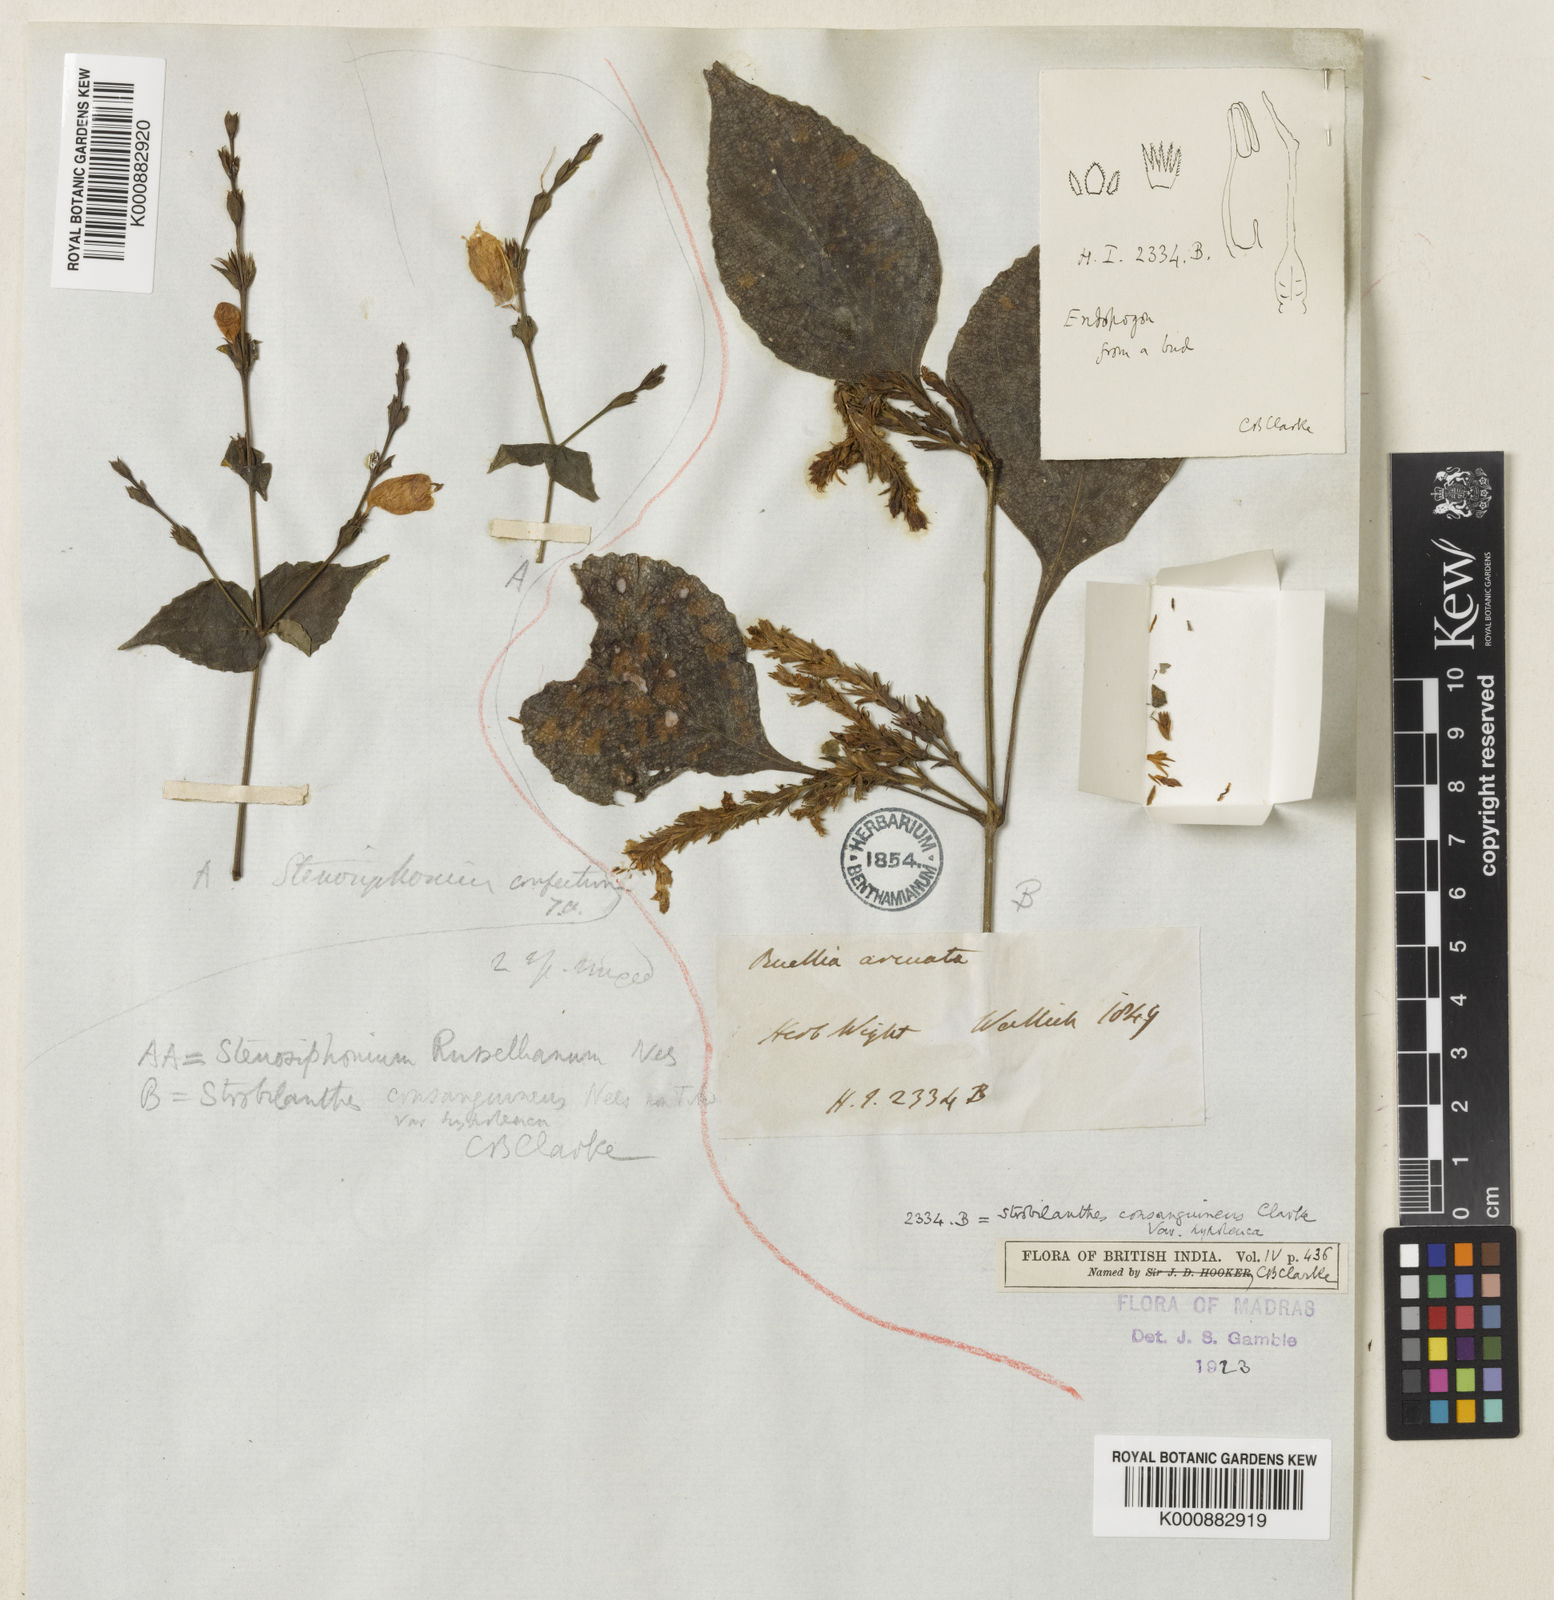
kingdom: Plantae
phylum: Tracheophyta
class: Magnoliopsida
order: Lamiales
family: Acanthaceae
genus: Strobilanthes
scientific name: Strobilanthes consanguinea
